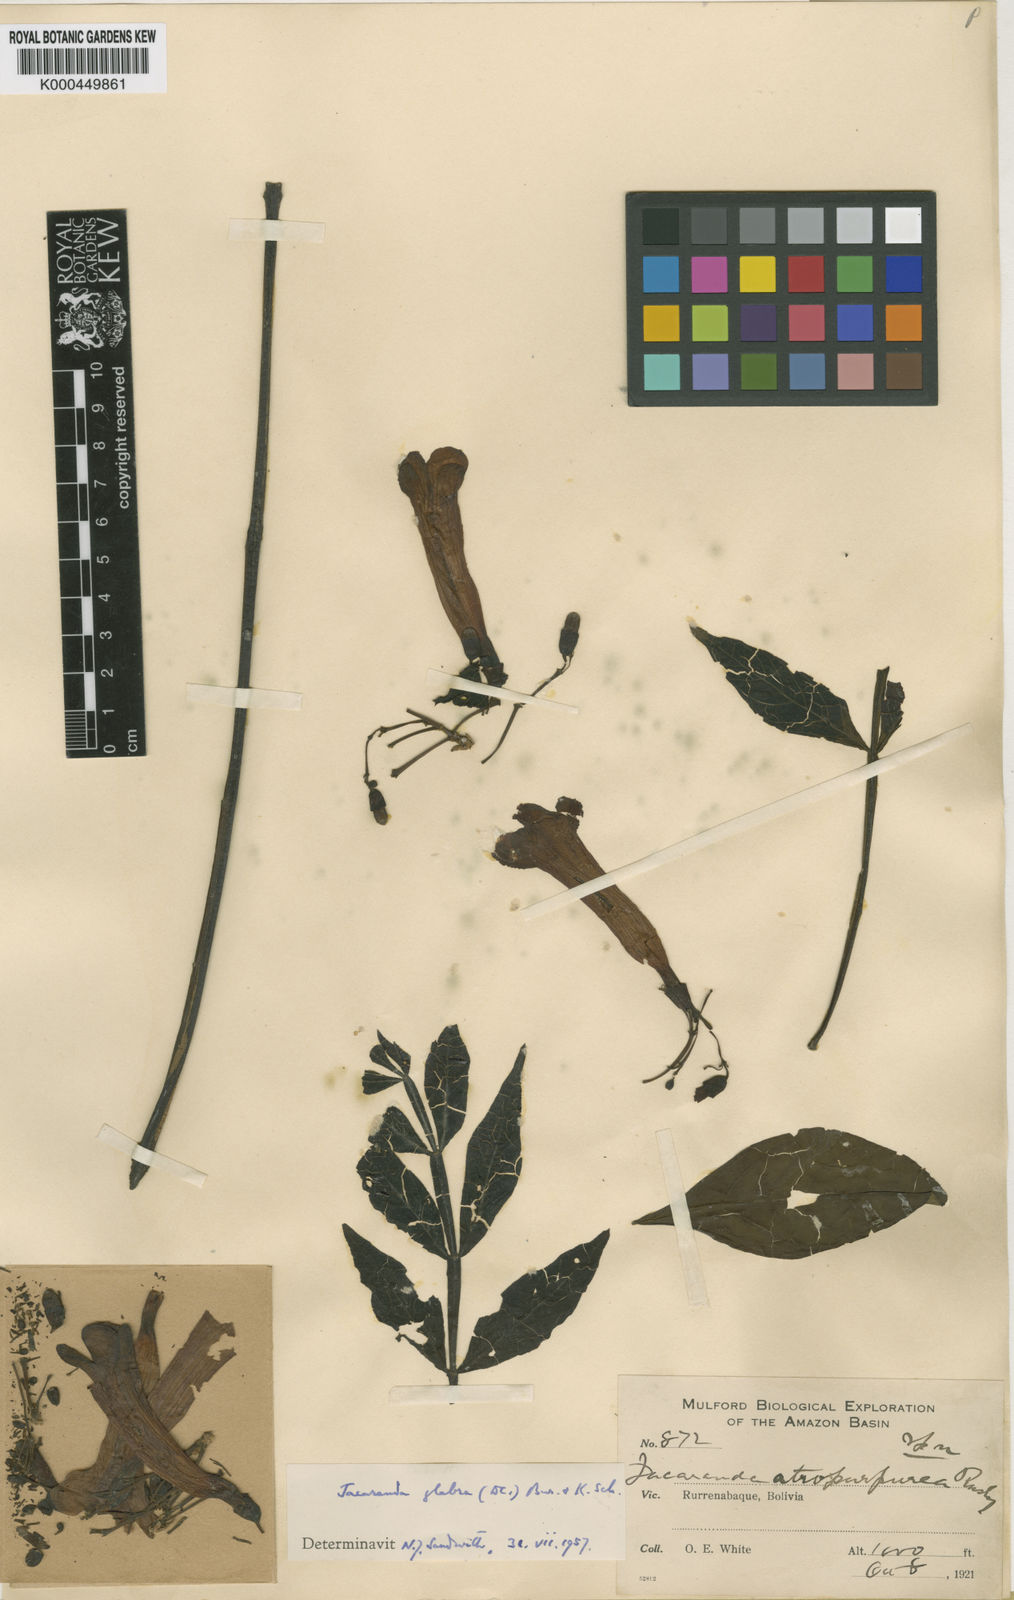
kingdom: Plantae
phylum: Tracheophyta
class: Magnoliopsida
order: Lamiales
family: Bignoniaceae
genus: Jacaranda
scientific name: Jacaranda glabra
